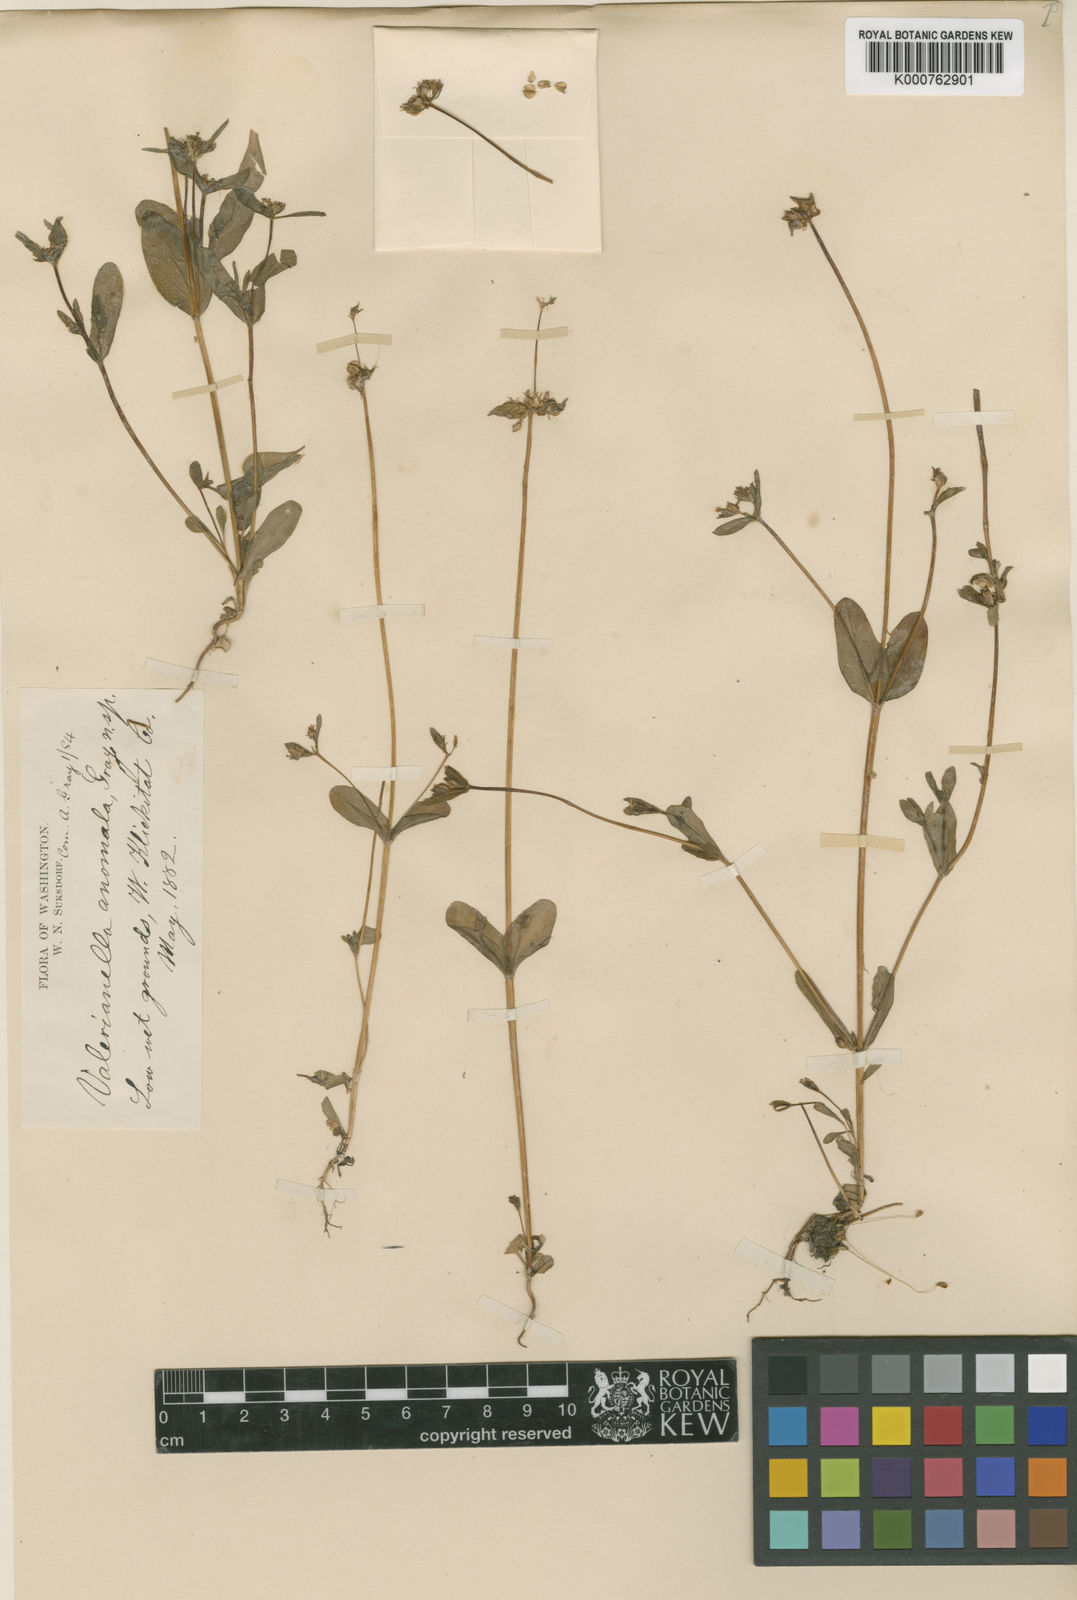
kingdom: Plantae
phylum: Tracheophyta
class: Magnoliopsida
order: Dipsacales
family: Caprifoliaceae
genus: Plectritis
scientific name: Plectritis brachystemon
